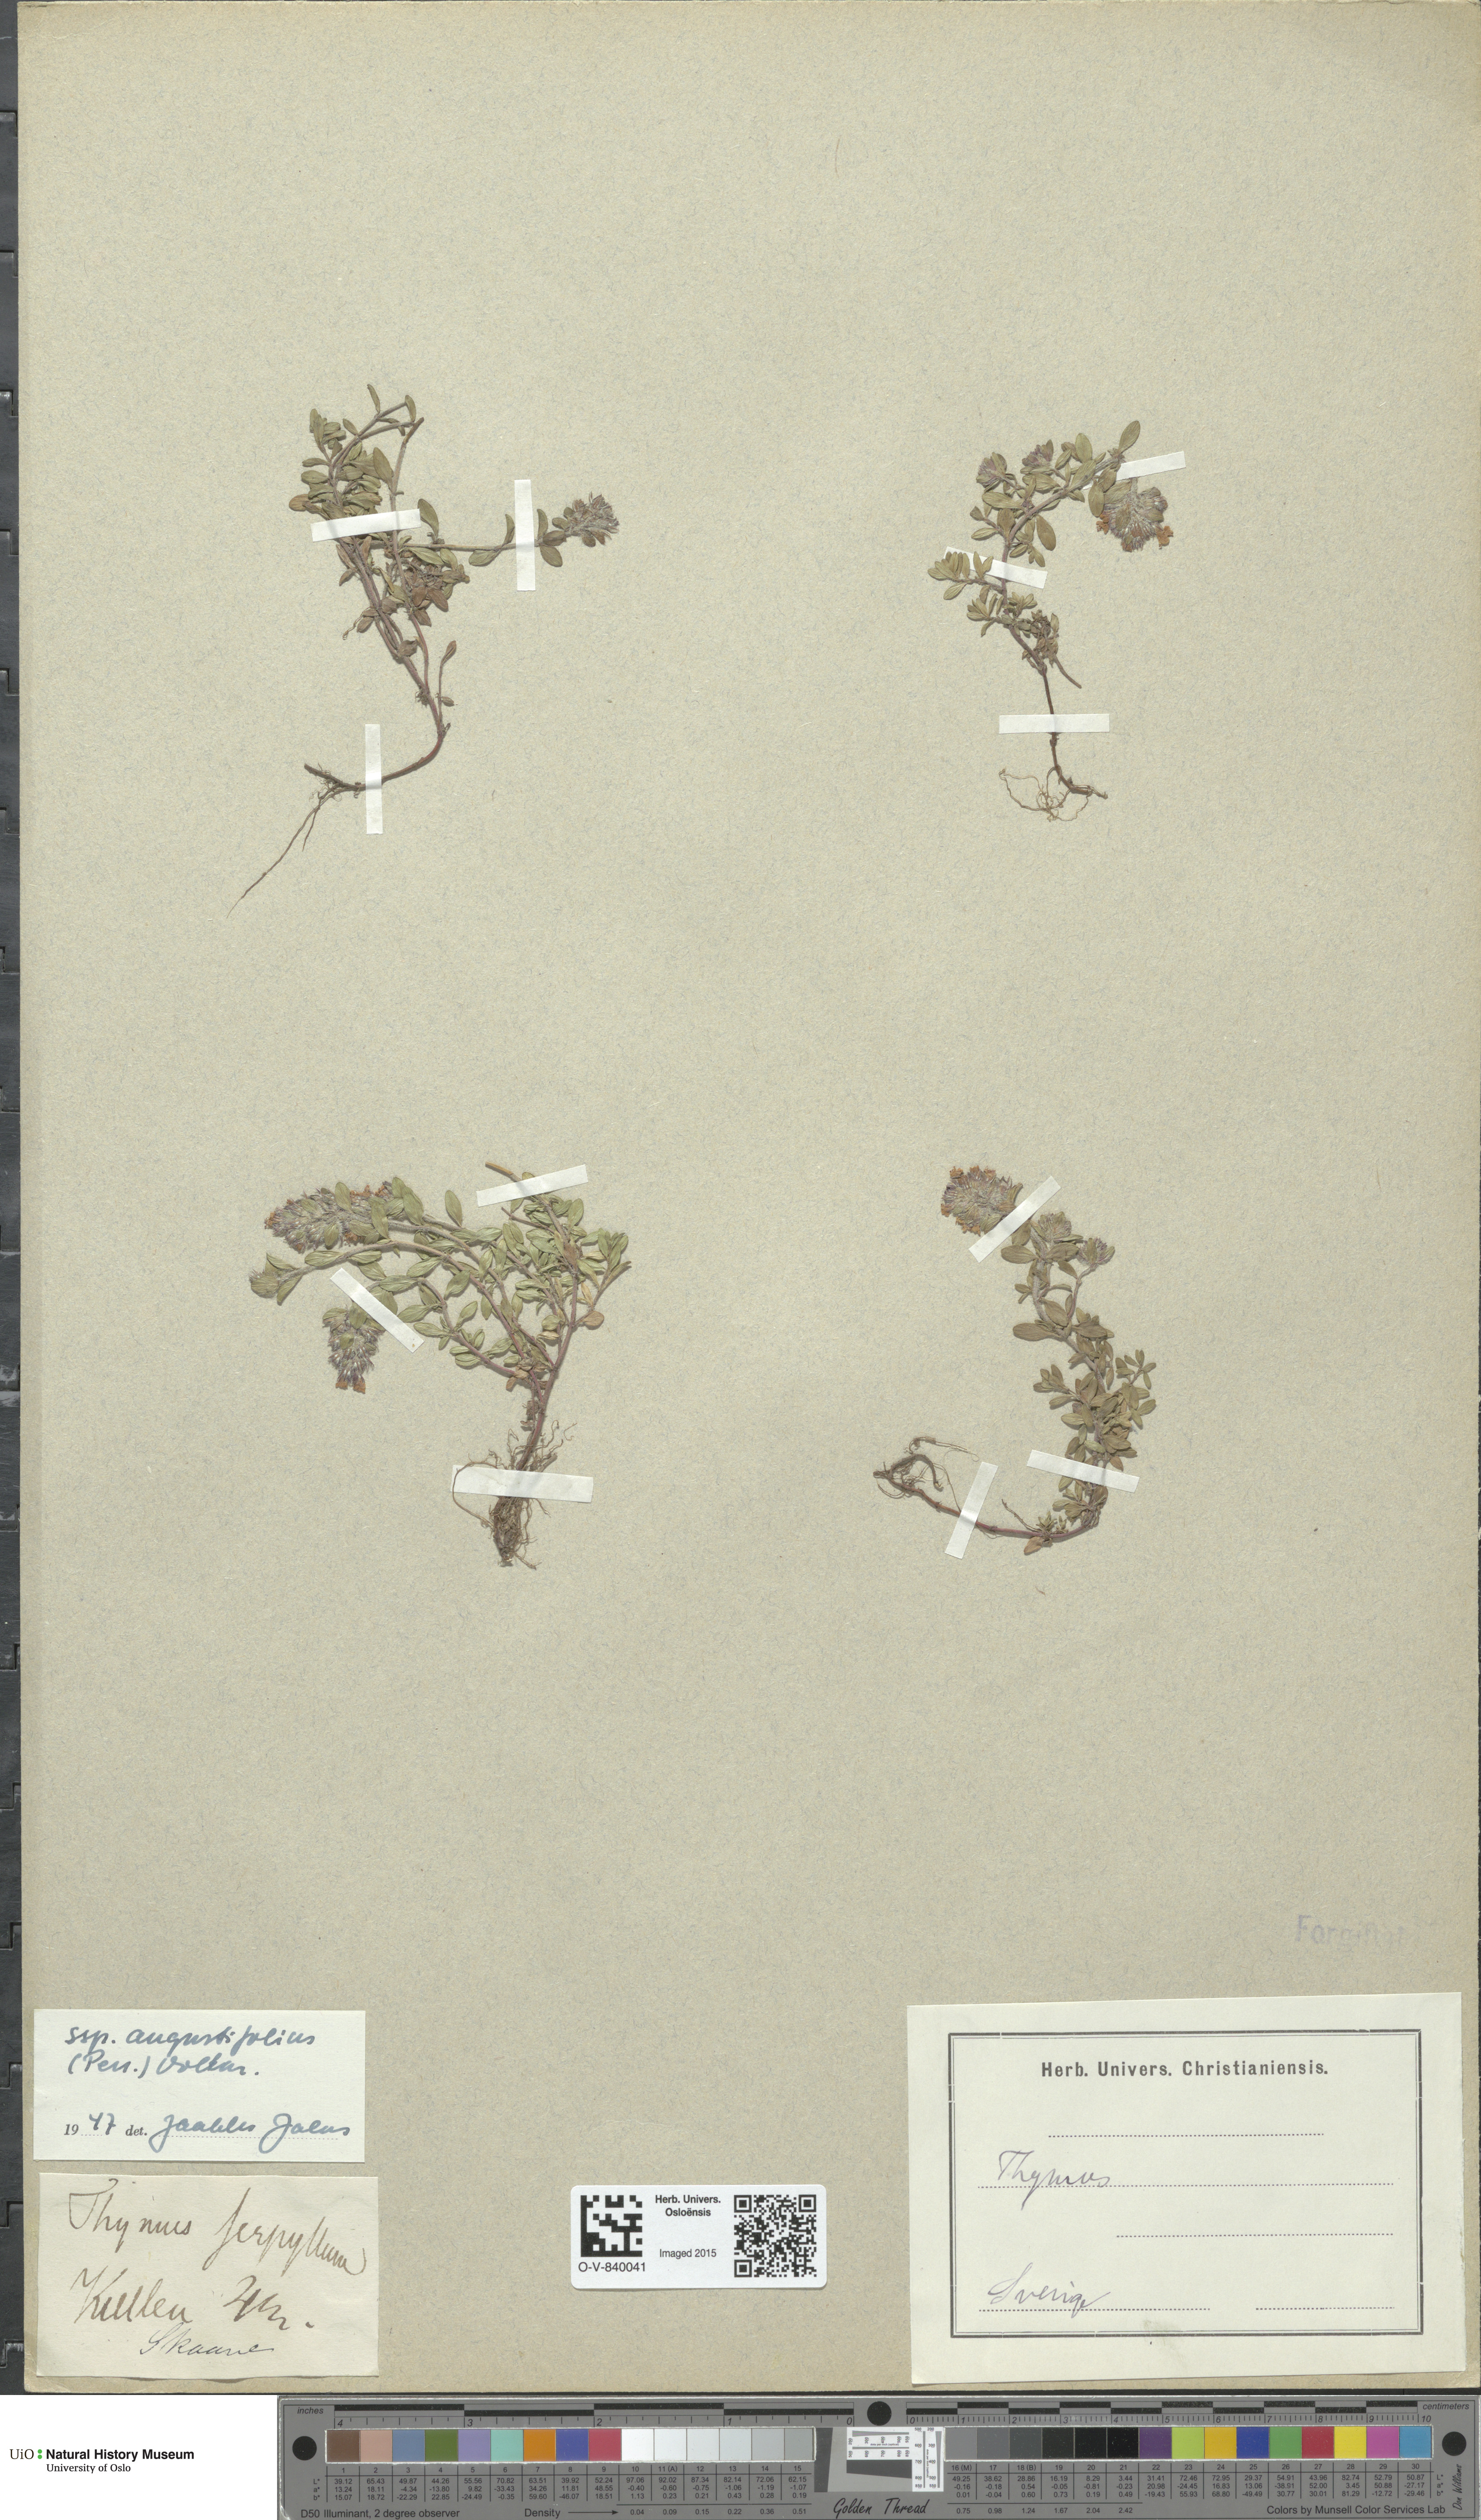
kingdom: Plantae
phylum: Tracheophyta
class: Magnoliopsida
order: Lamiales
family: Lamiaceae
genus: Thymus
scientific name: Thymus serpyllum
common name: Breckland thyme
